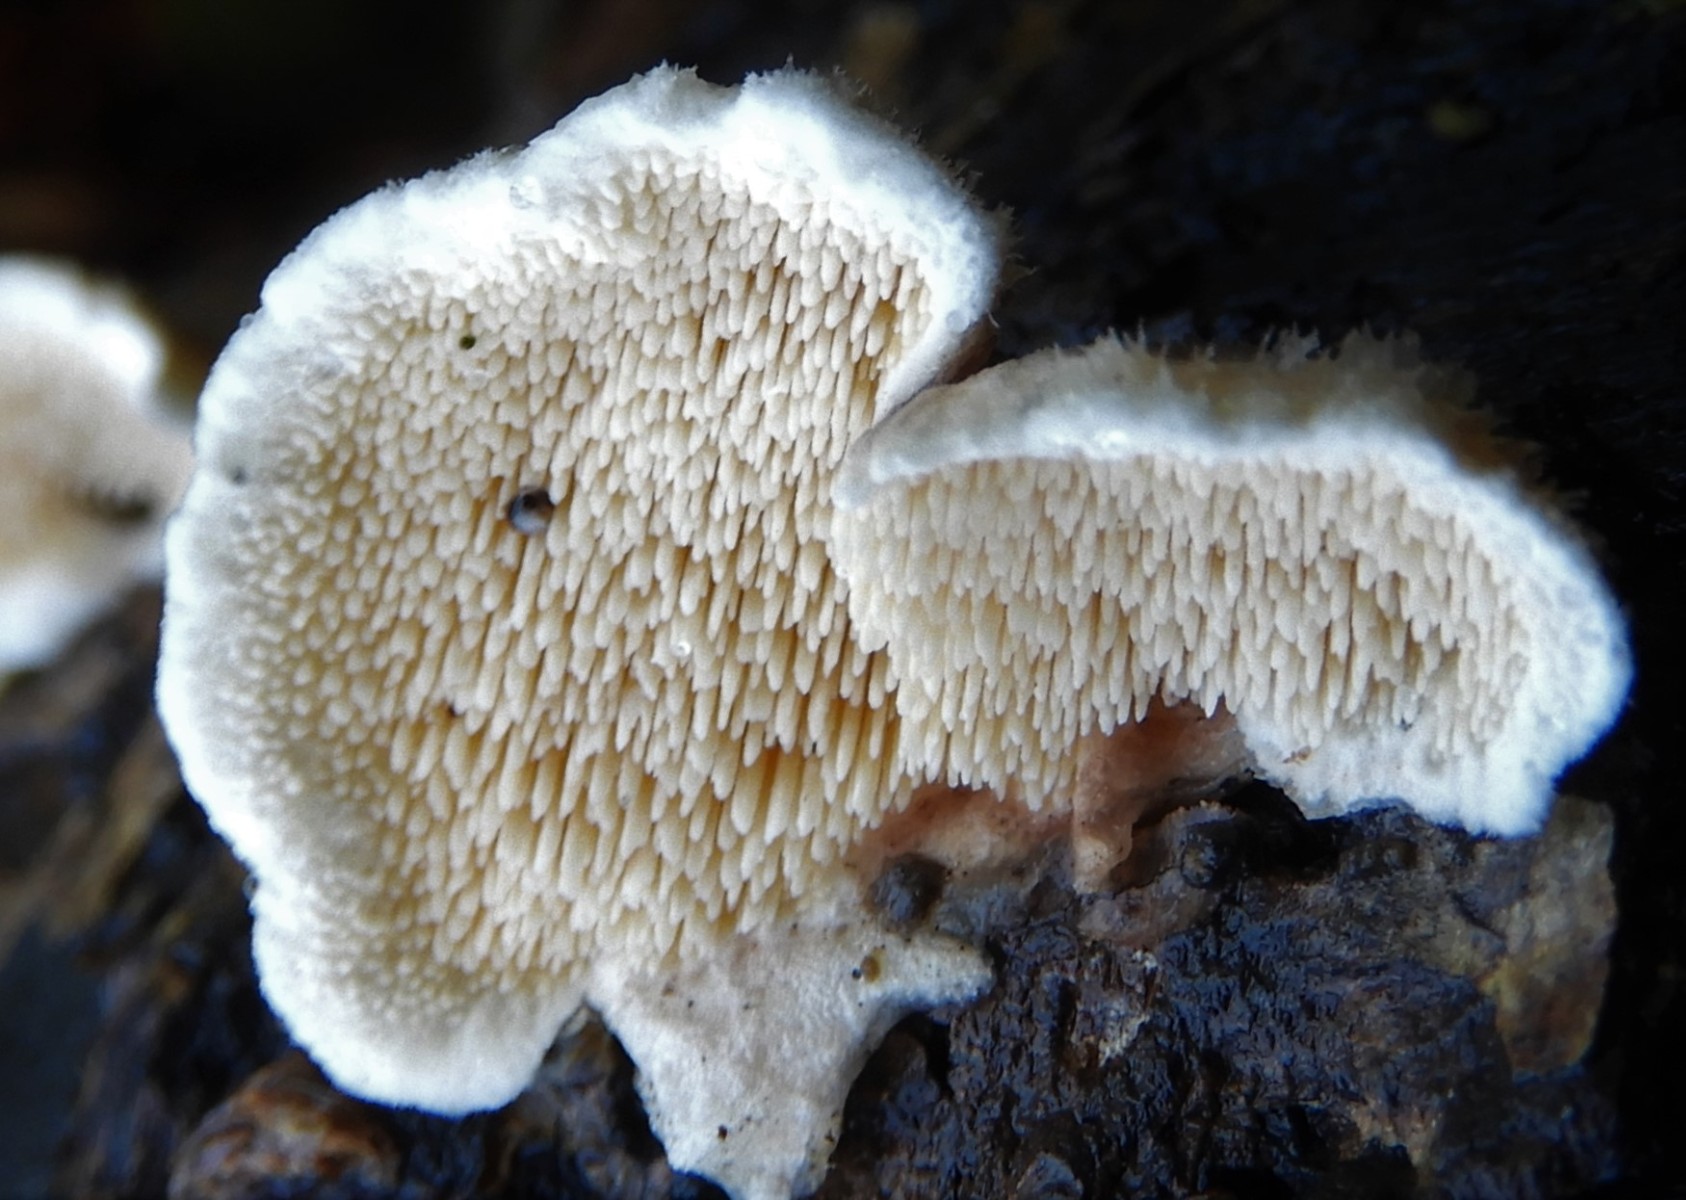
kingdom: Fungi
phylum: Basidiomycota
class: Agaricomycetes
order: Polyporales
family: Steccherinaceae
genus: Steccherinum
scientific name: Steccherinum
